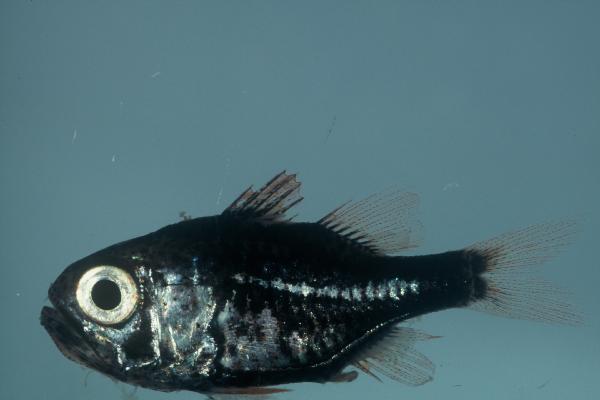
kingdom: Animalia
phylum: Chordata
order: Perciformes
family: Apogonidae
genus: Siphamia
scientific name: Siphamia mossambica
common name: Sea urchin cardinal
